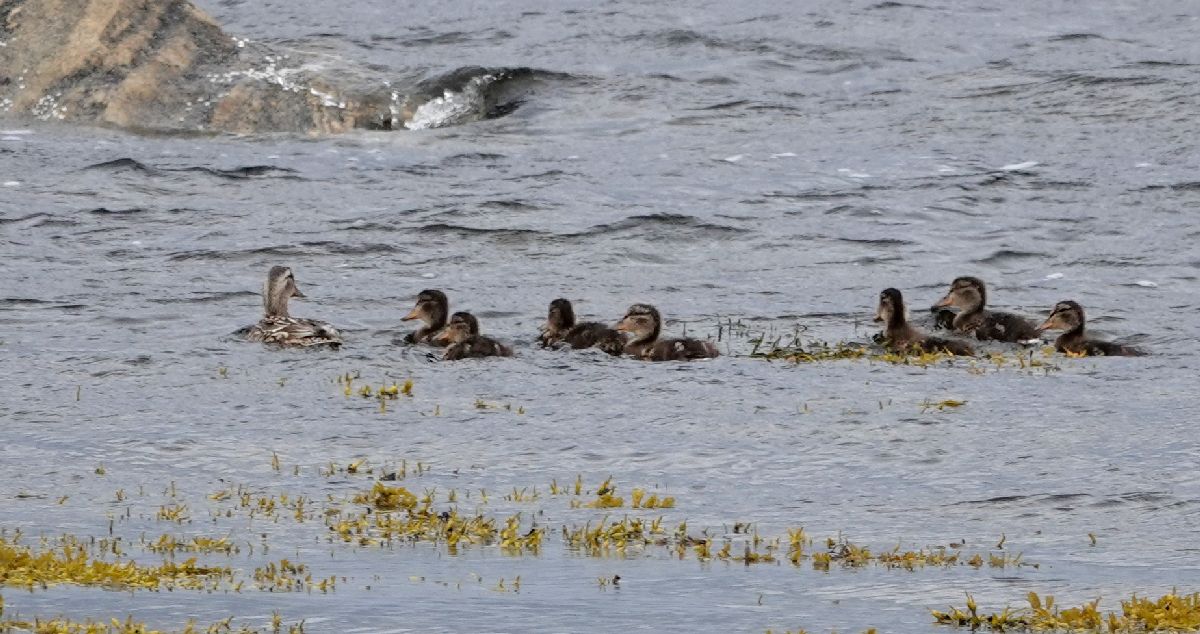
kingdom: Animalia
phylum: Chordata
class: Aves
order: Anseriformes
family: Anatidae
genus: Anas
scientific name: Anas platyrhynchos
